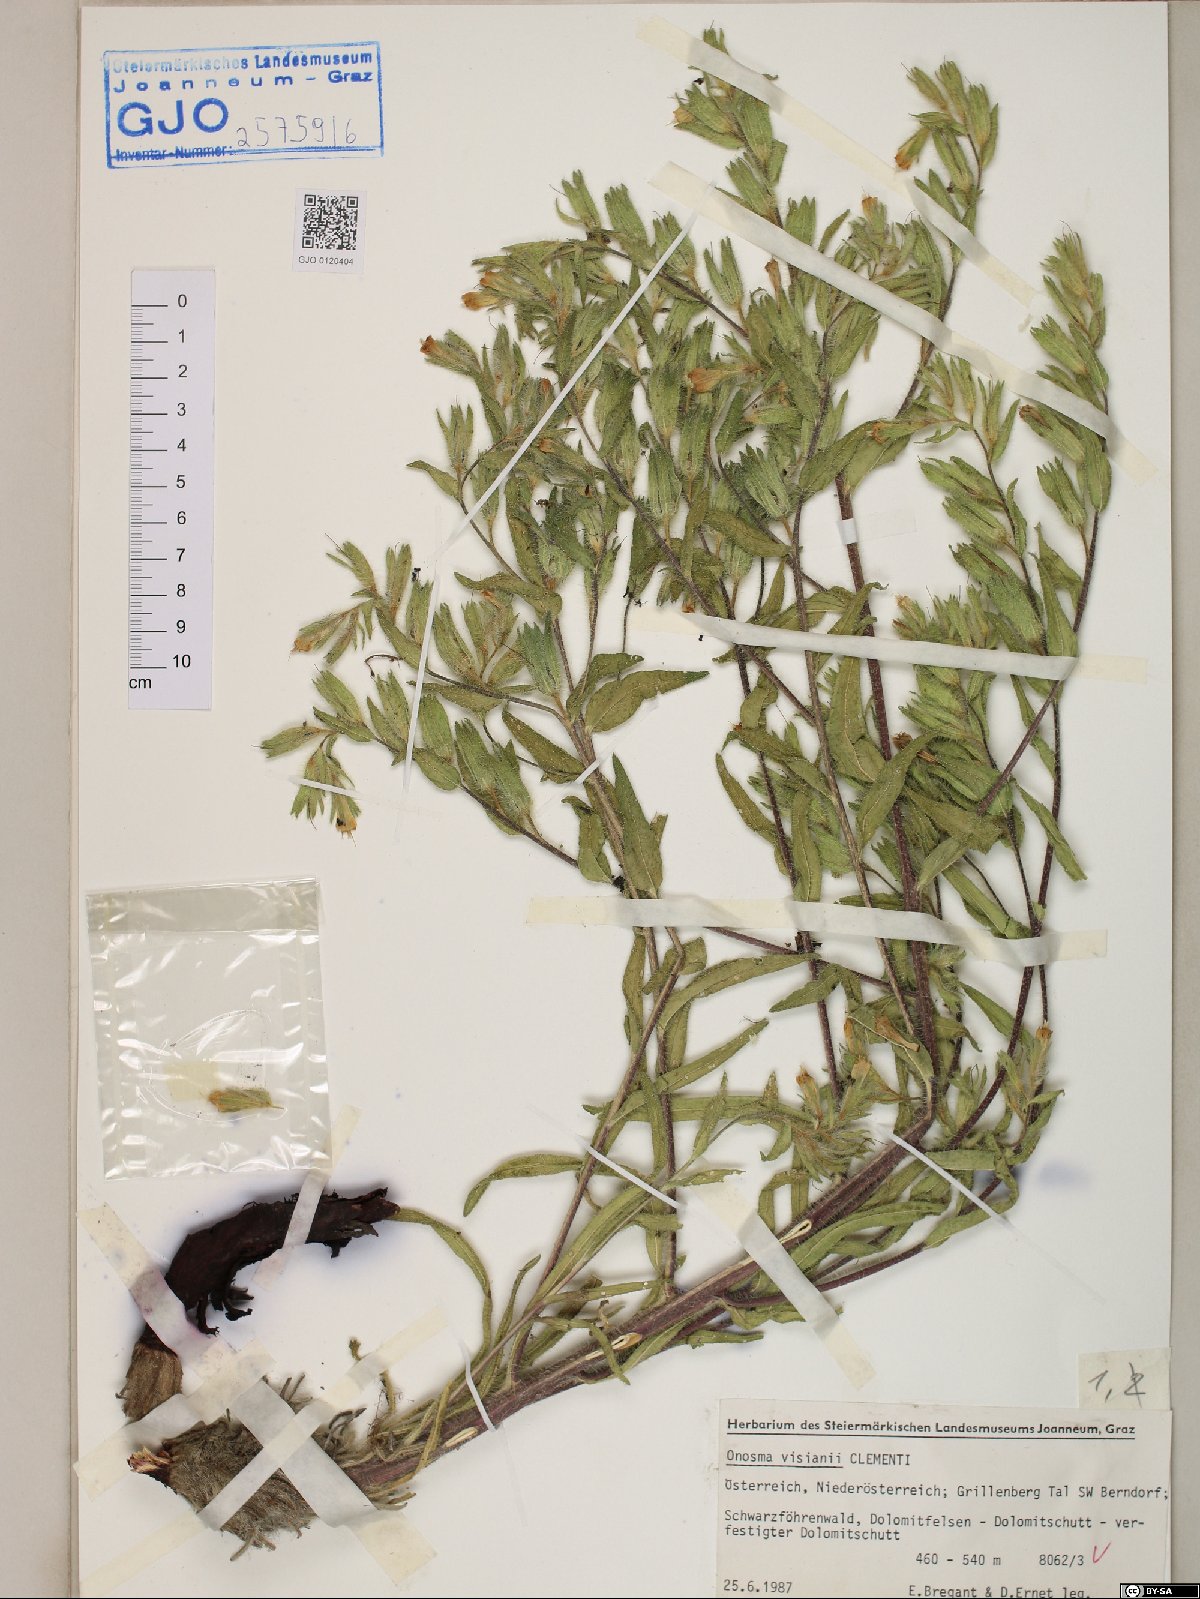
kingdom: Plantae
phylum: Tracheophyta
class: Magnoliopsida
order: Boraginales
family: Boraginaceae
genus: Onosma
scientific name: Onosma visianii
